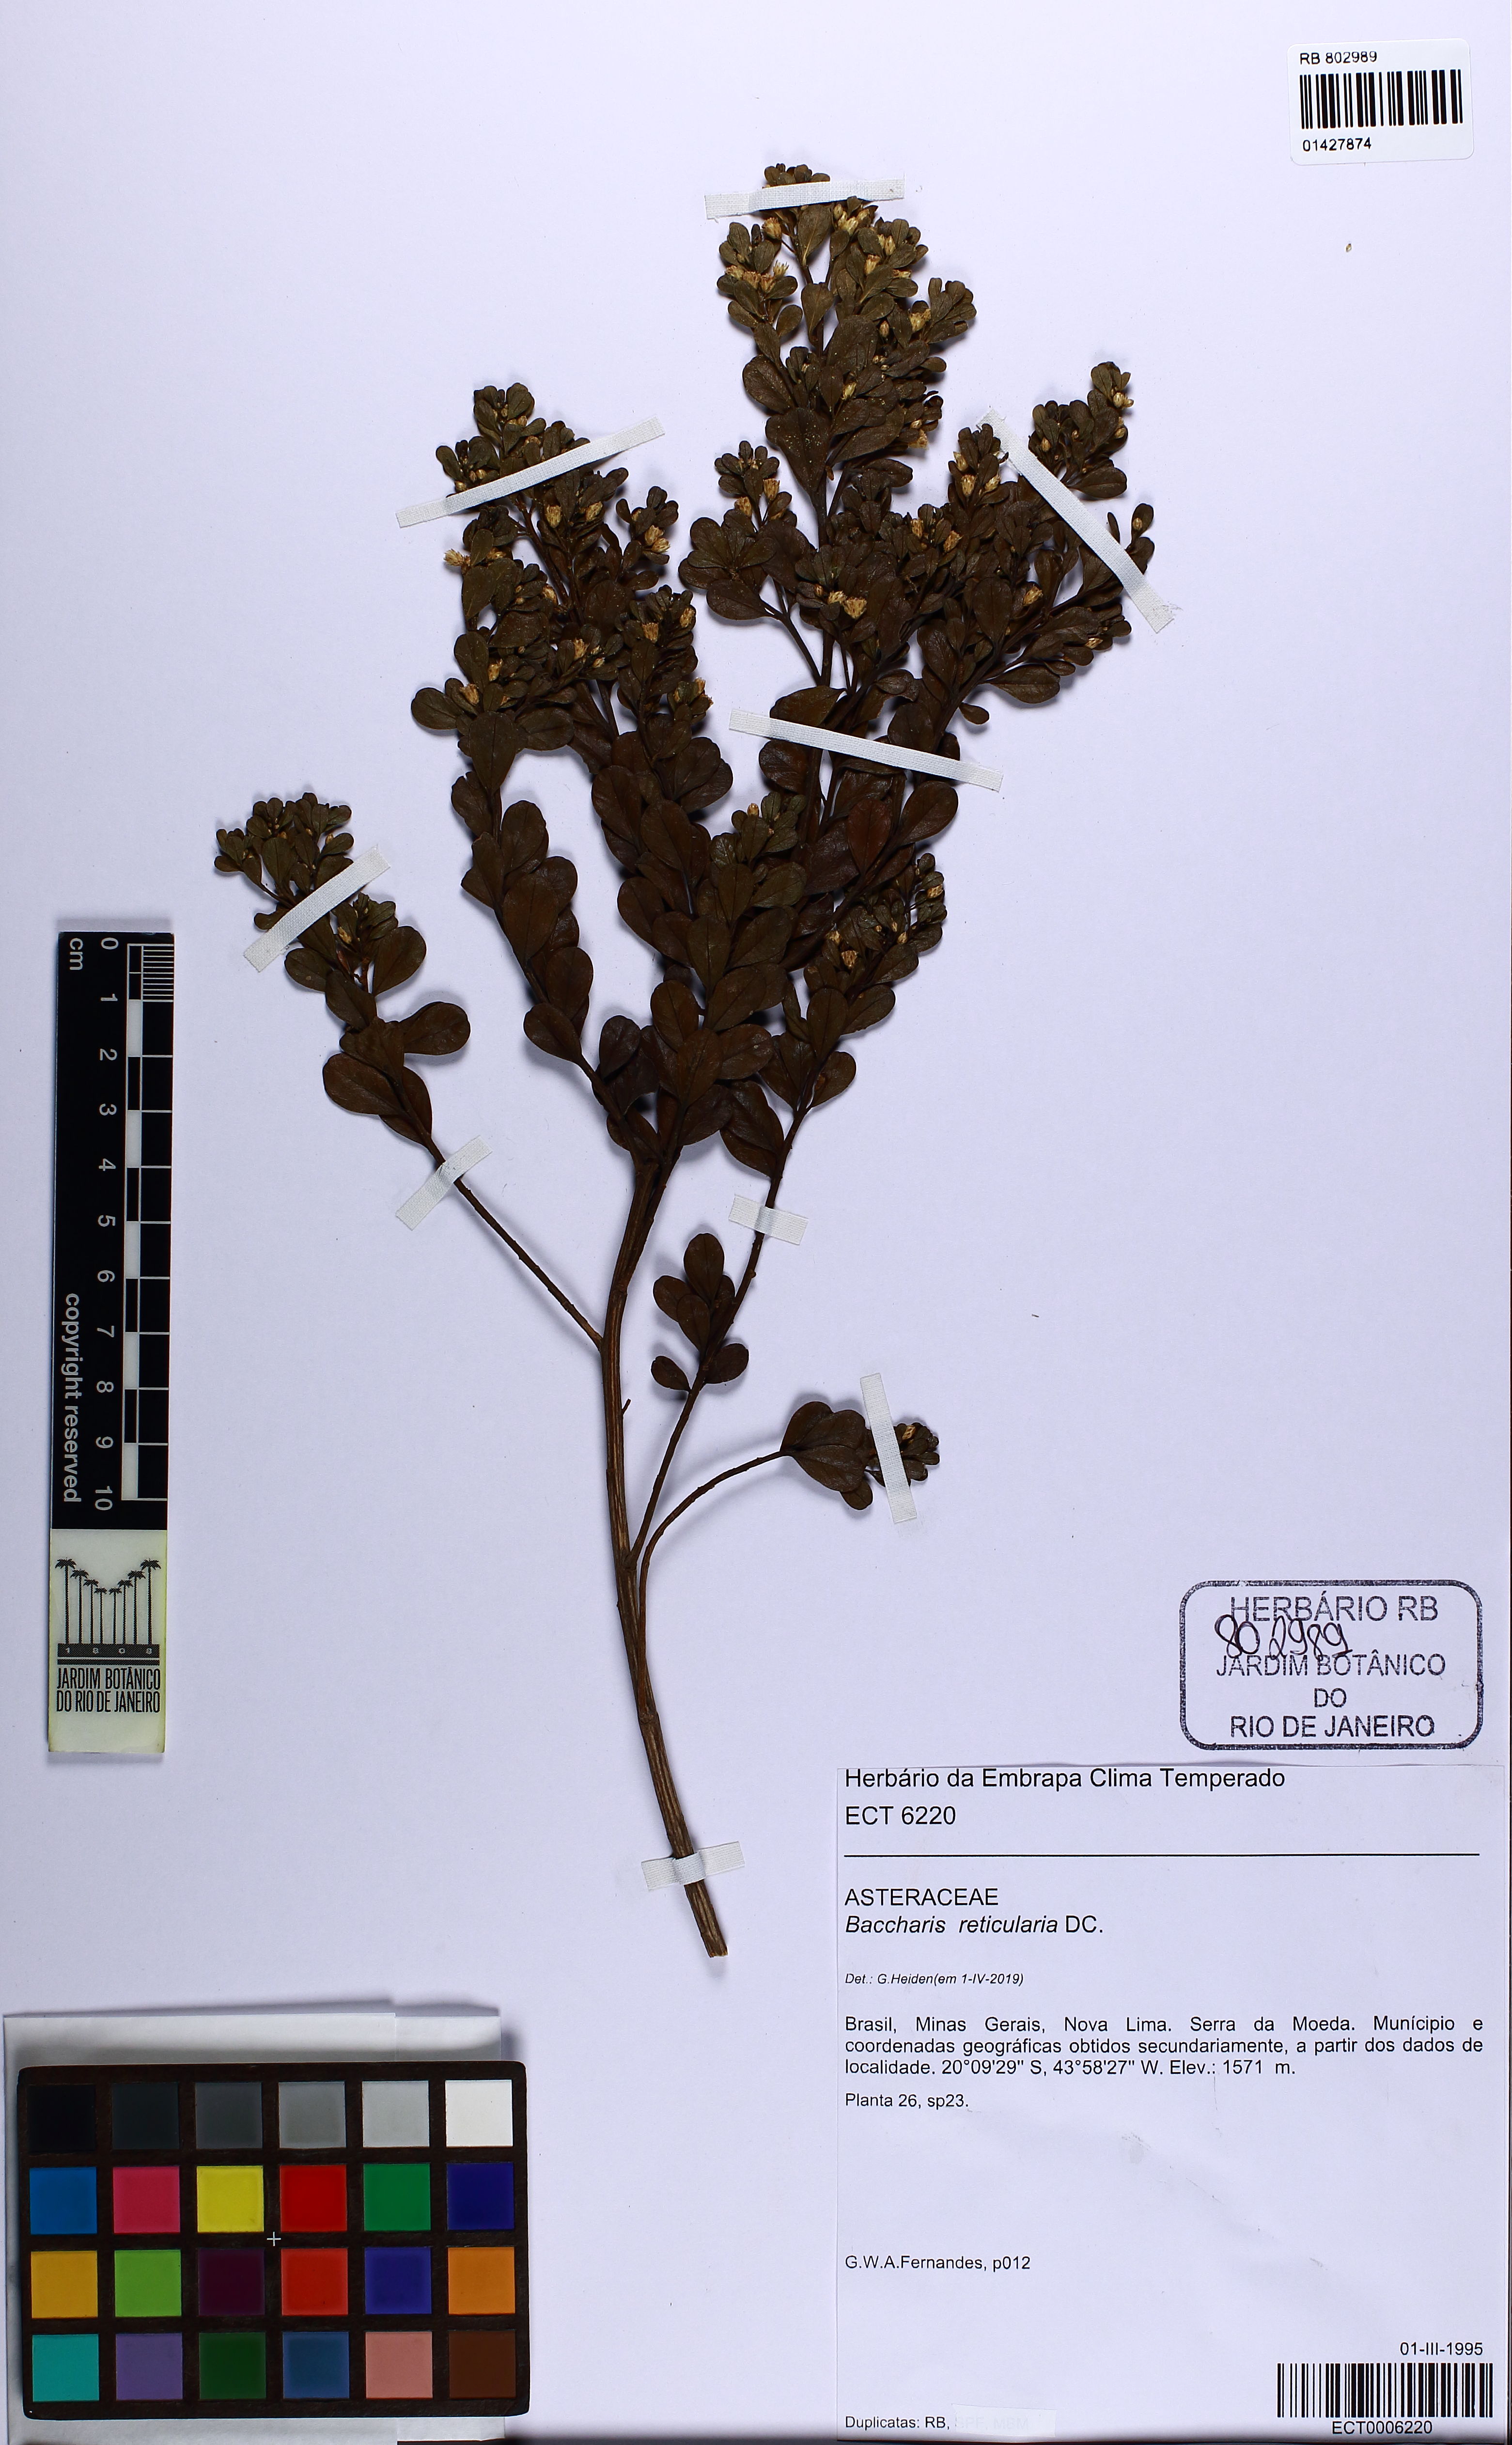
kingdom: Plantae
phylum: Tracheophyta
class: Magnoliopsida
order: Asterales
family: Asteraceae
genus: Baccharis
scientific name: Baccharis reticularia
